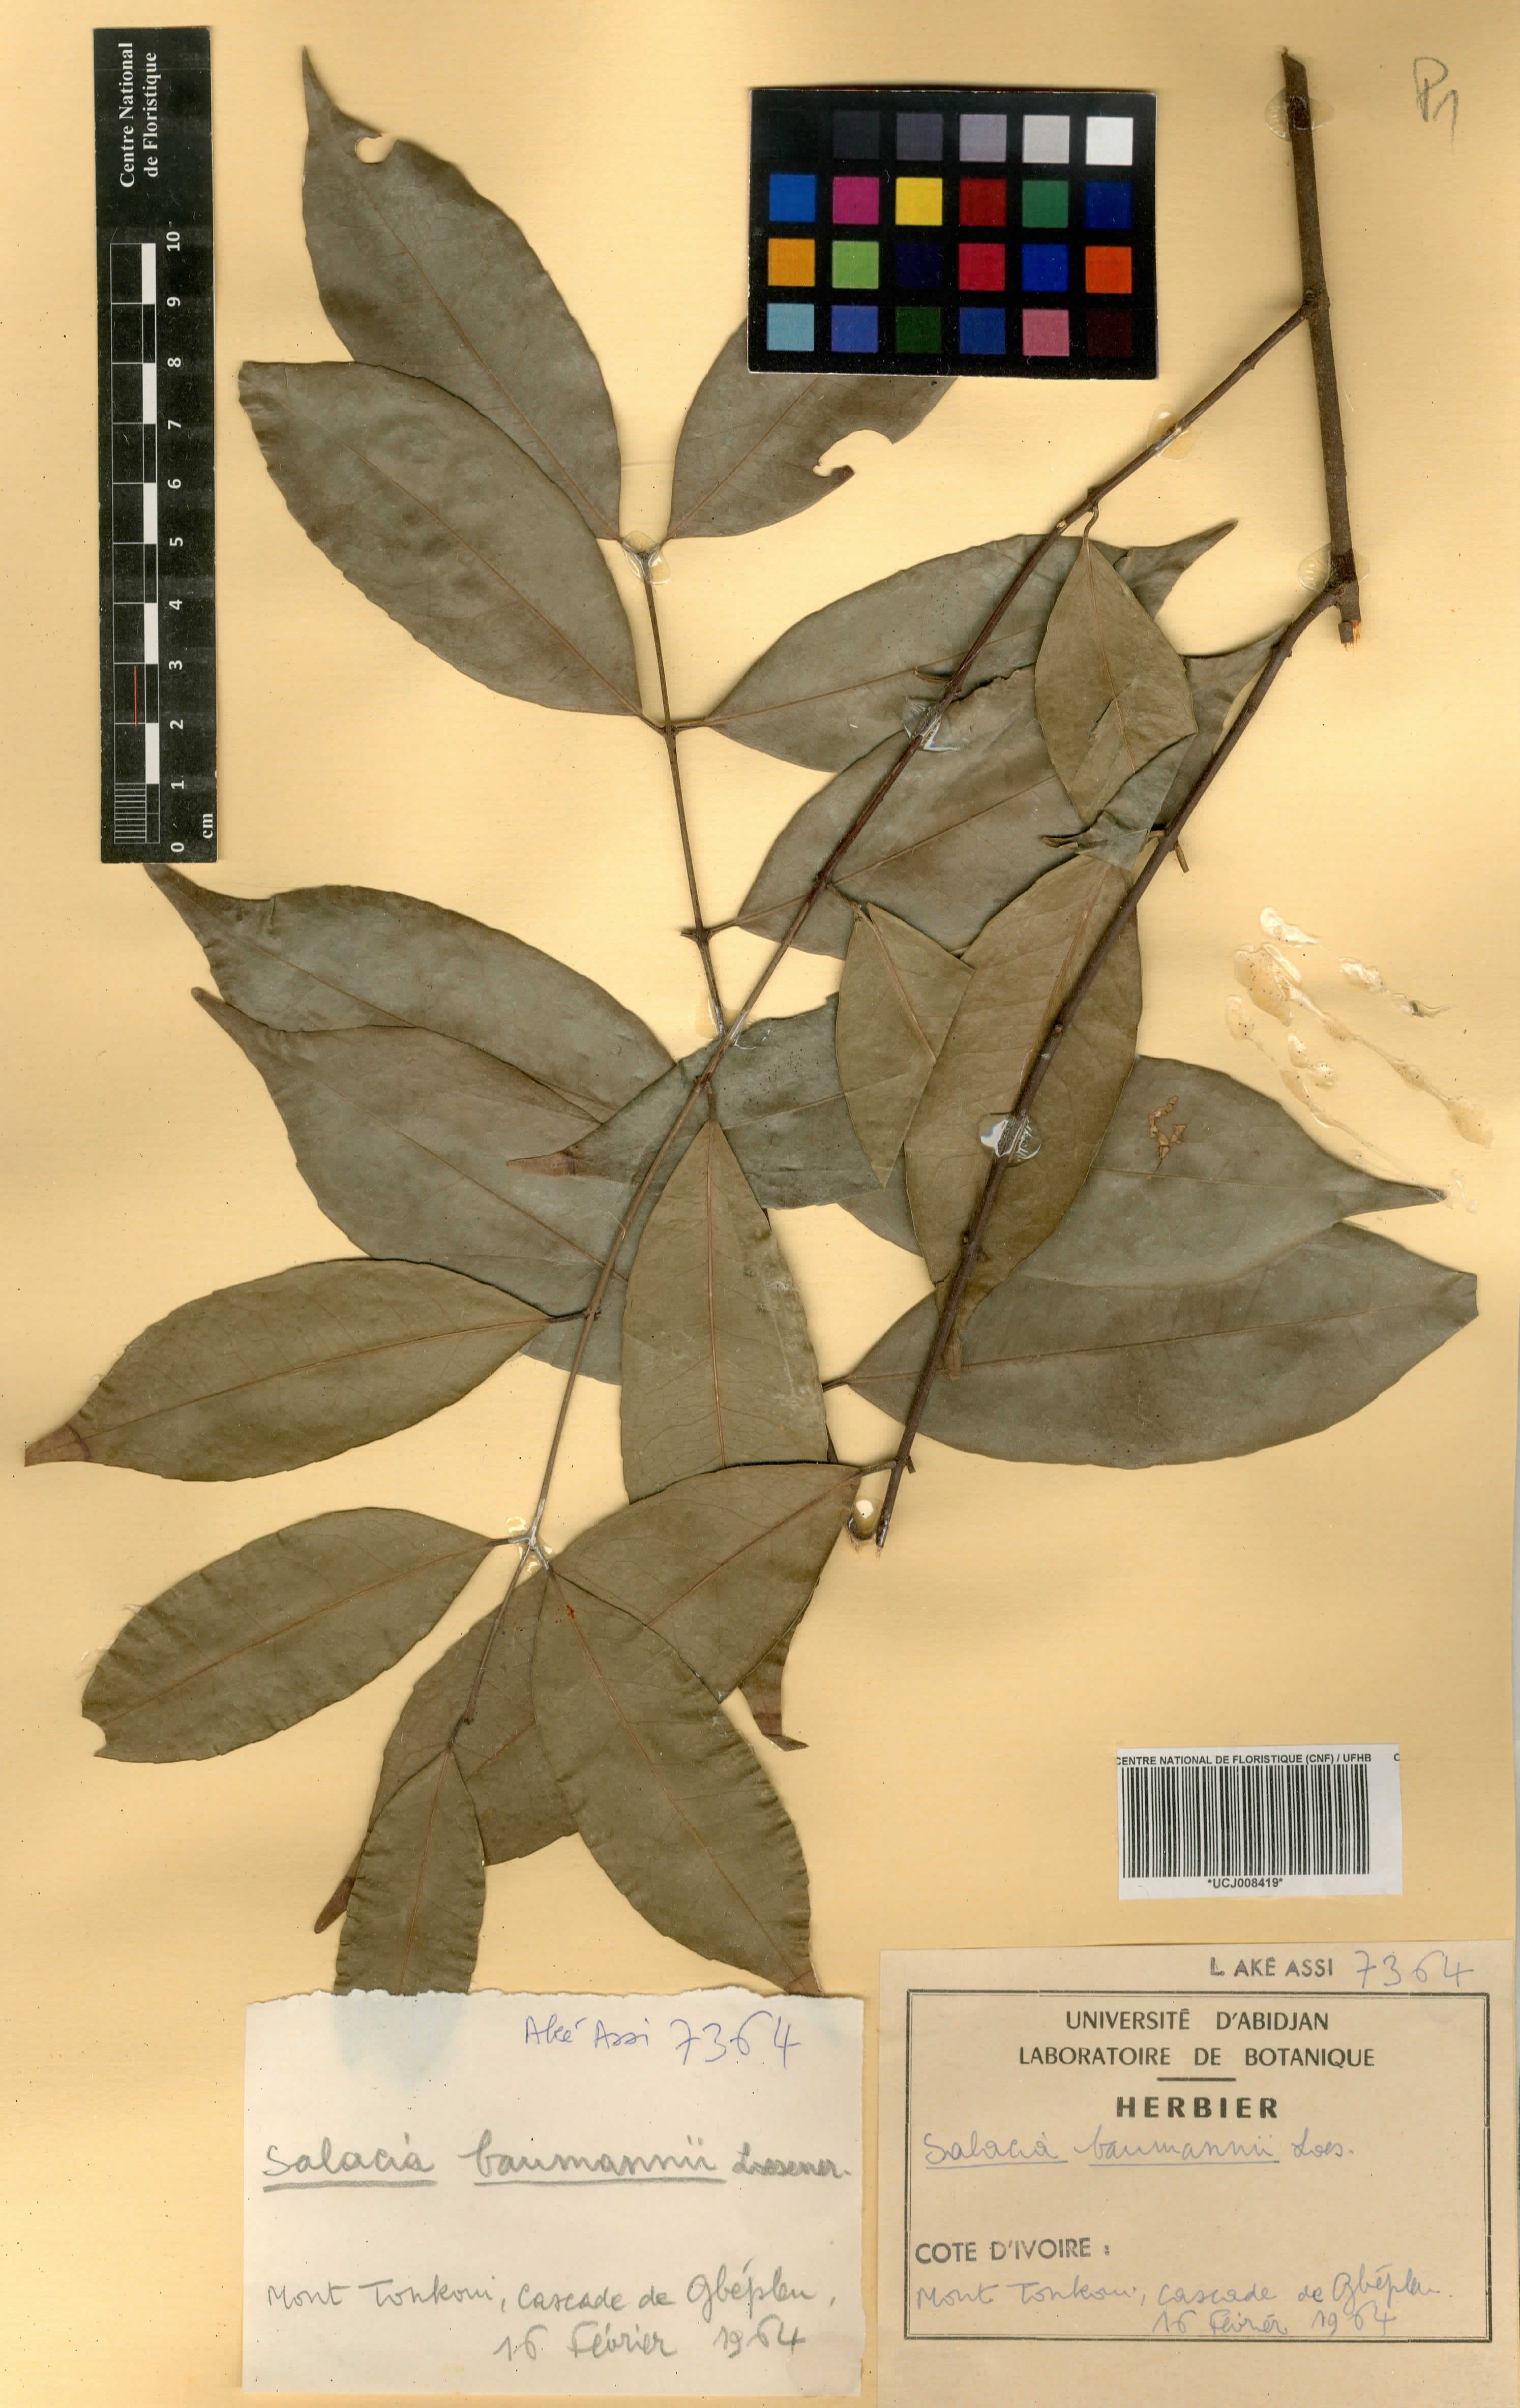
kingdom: Plantae
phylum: Tracheophyta
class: Magnoliopsida
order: Celastrales
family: Celastraceae
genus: Salacia
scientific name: Salacia leptoclada
